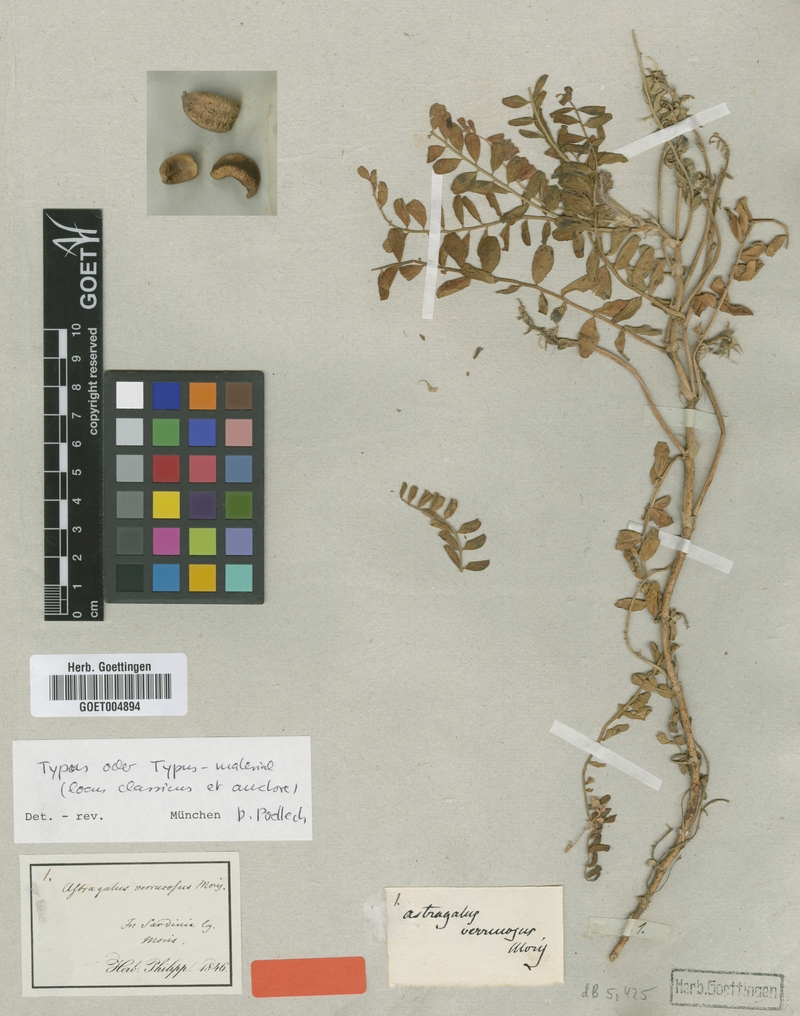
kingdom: Plantae
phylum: Tracheophyta
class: Magnoliopsida
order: Fabales
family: Fabaceae
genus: Astragalus
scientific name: Astragalus verrucosus
